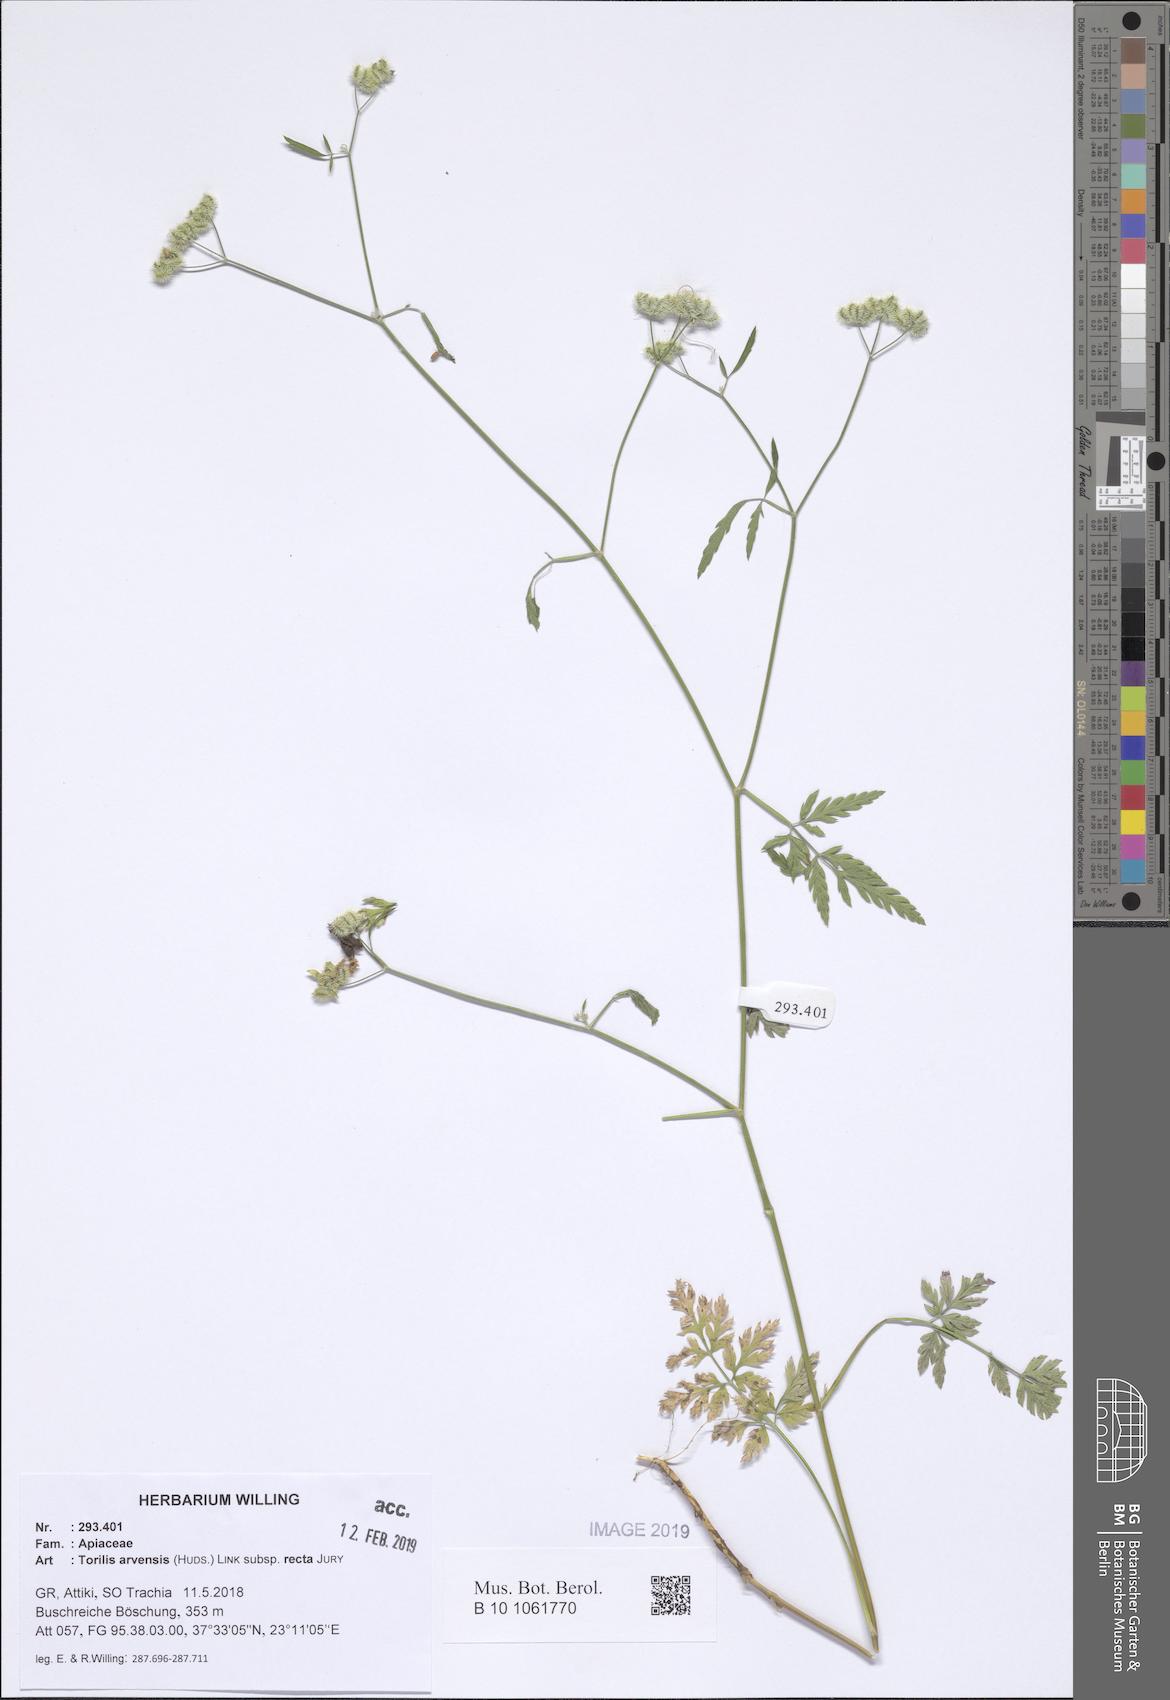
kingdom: Plantae
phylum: Tracheophyta
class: Magnoliopsida
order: Apiales
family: Apiaceae
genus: Torilis
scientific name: Torilis arvensis
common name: Spreading hedge-parsley
